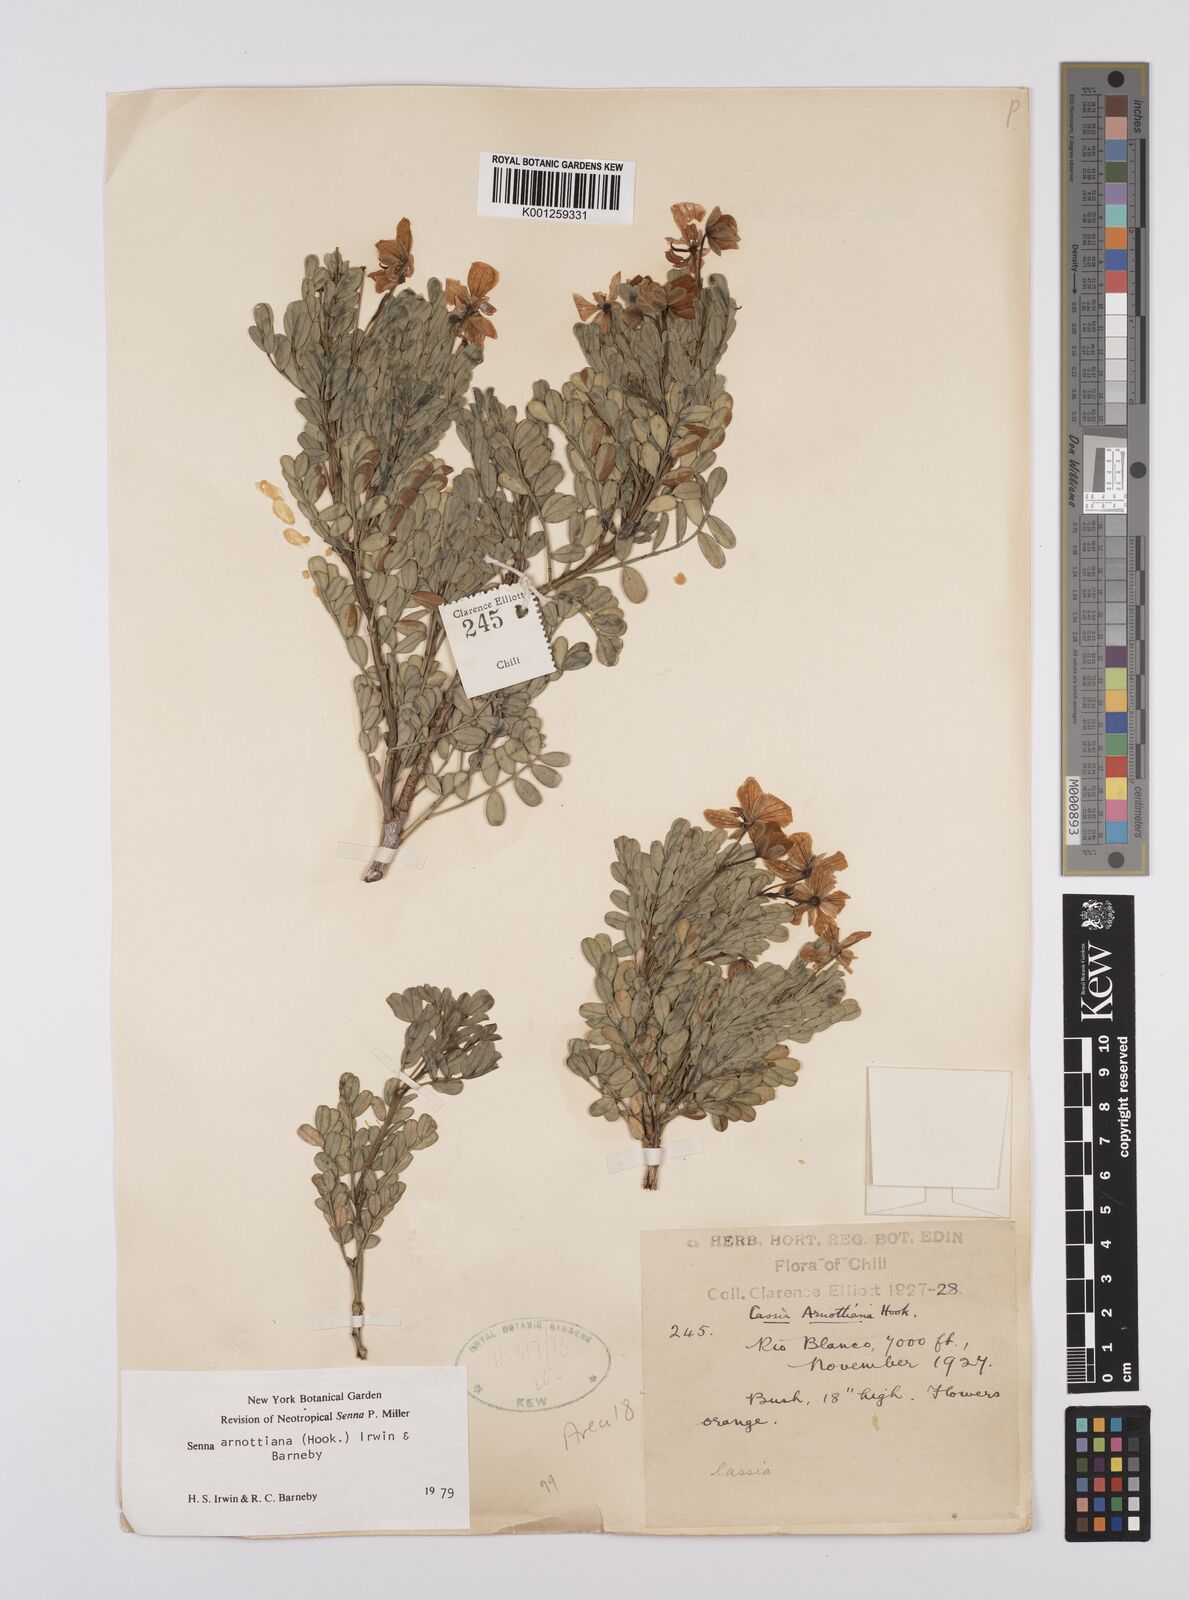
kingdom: Plantae
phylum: Tracheophyta
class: Magnoliopsida
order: Fabales
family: Fabaceae
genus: Senna
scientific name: Senna arnottiana
